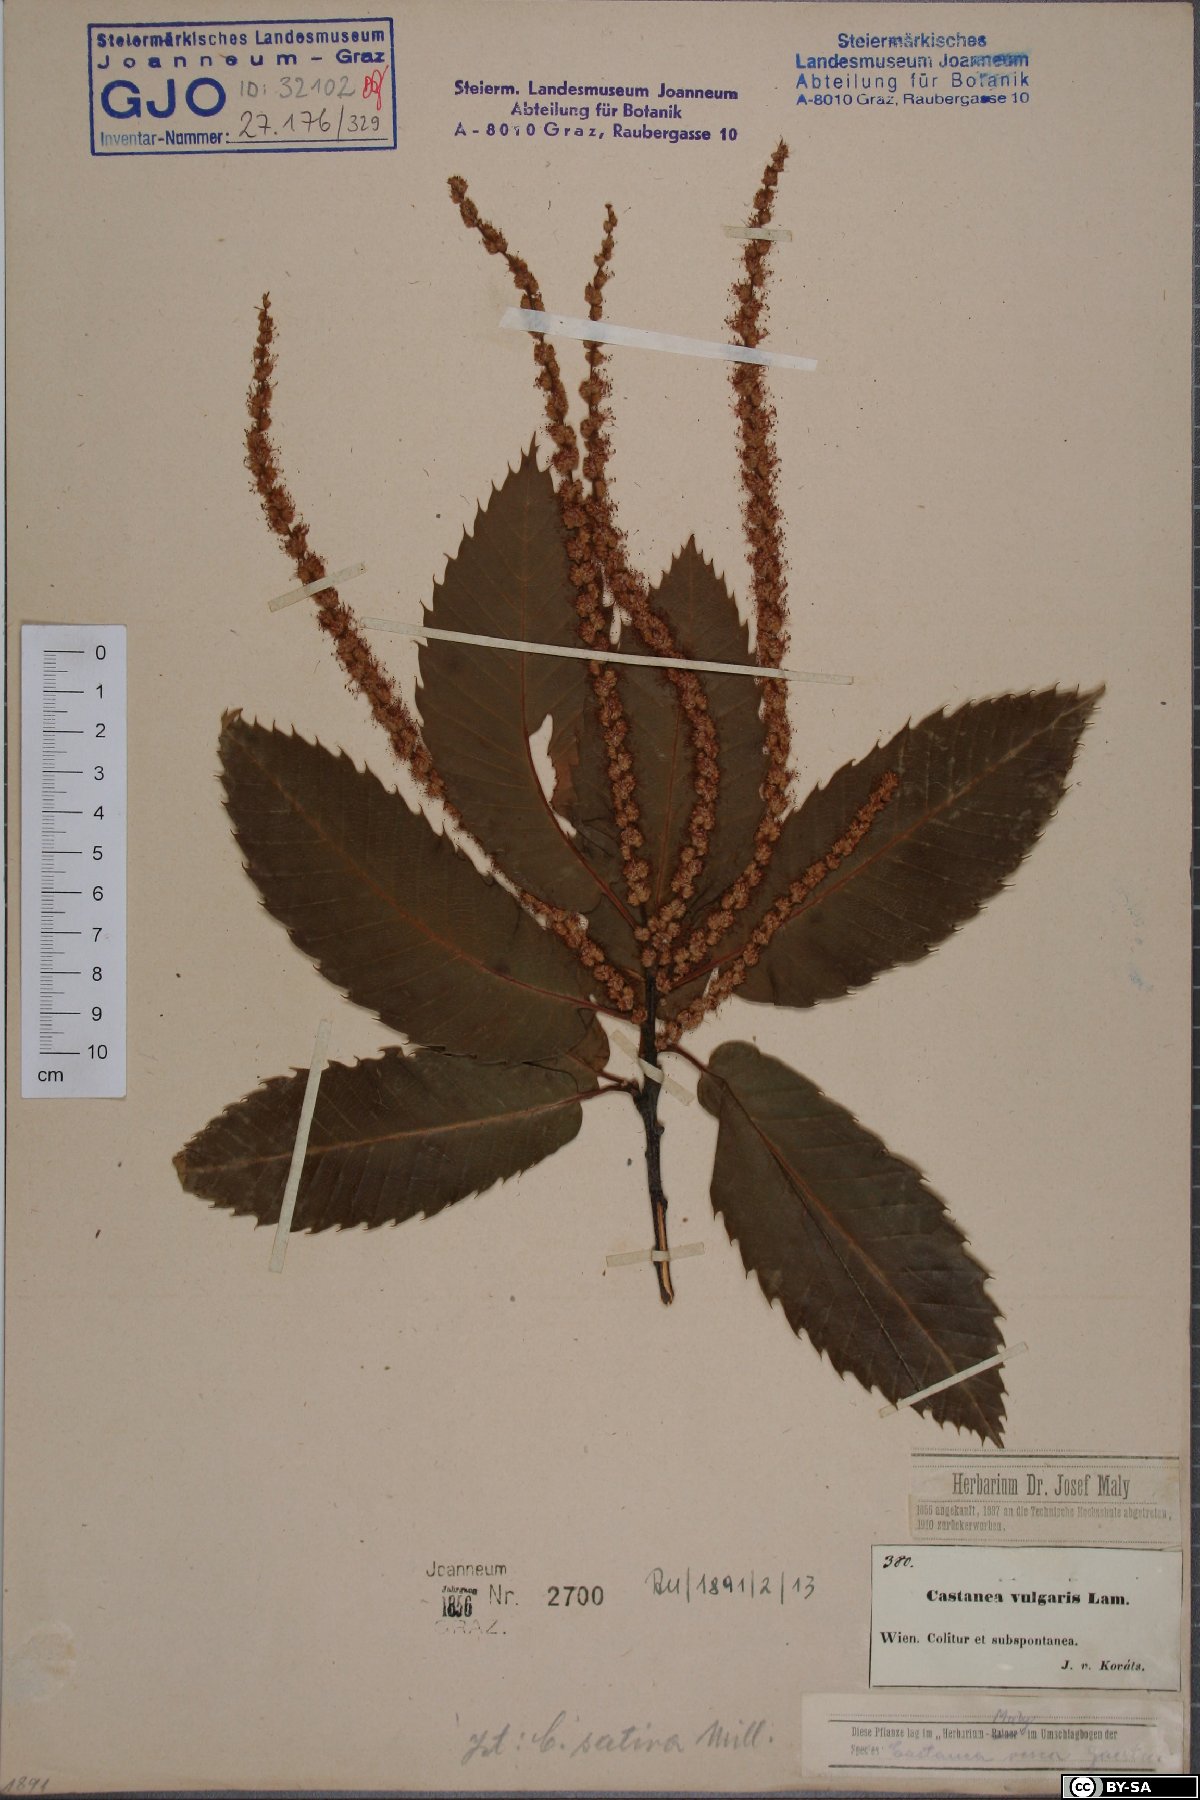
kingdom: Plantae
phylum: Tracheophyta
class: Magnoliopsida
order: Fagales
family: Fagaceae
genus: Castanea
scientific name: Castanea sativa
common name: Sweet chestnut
